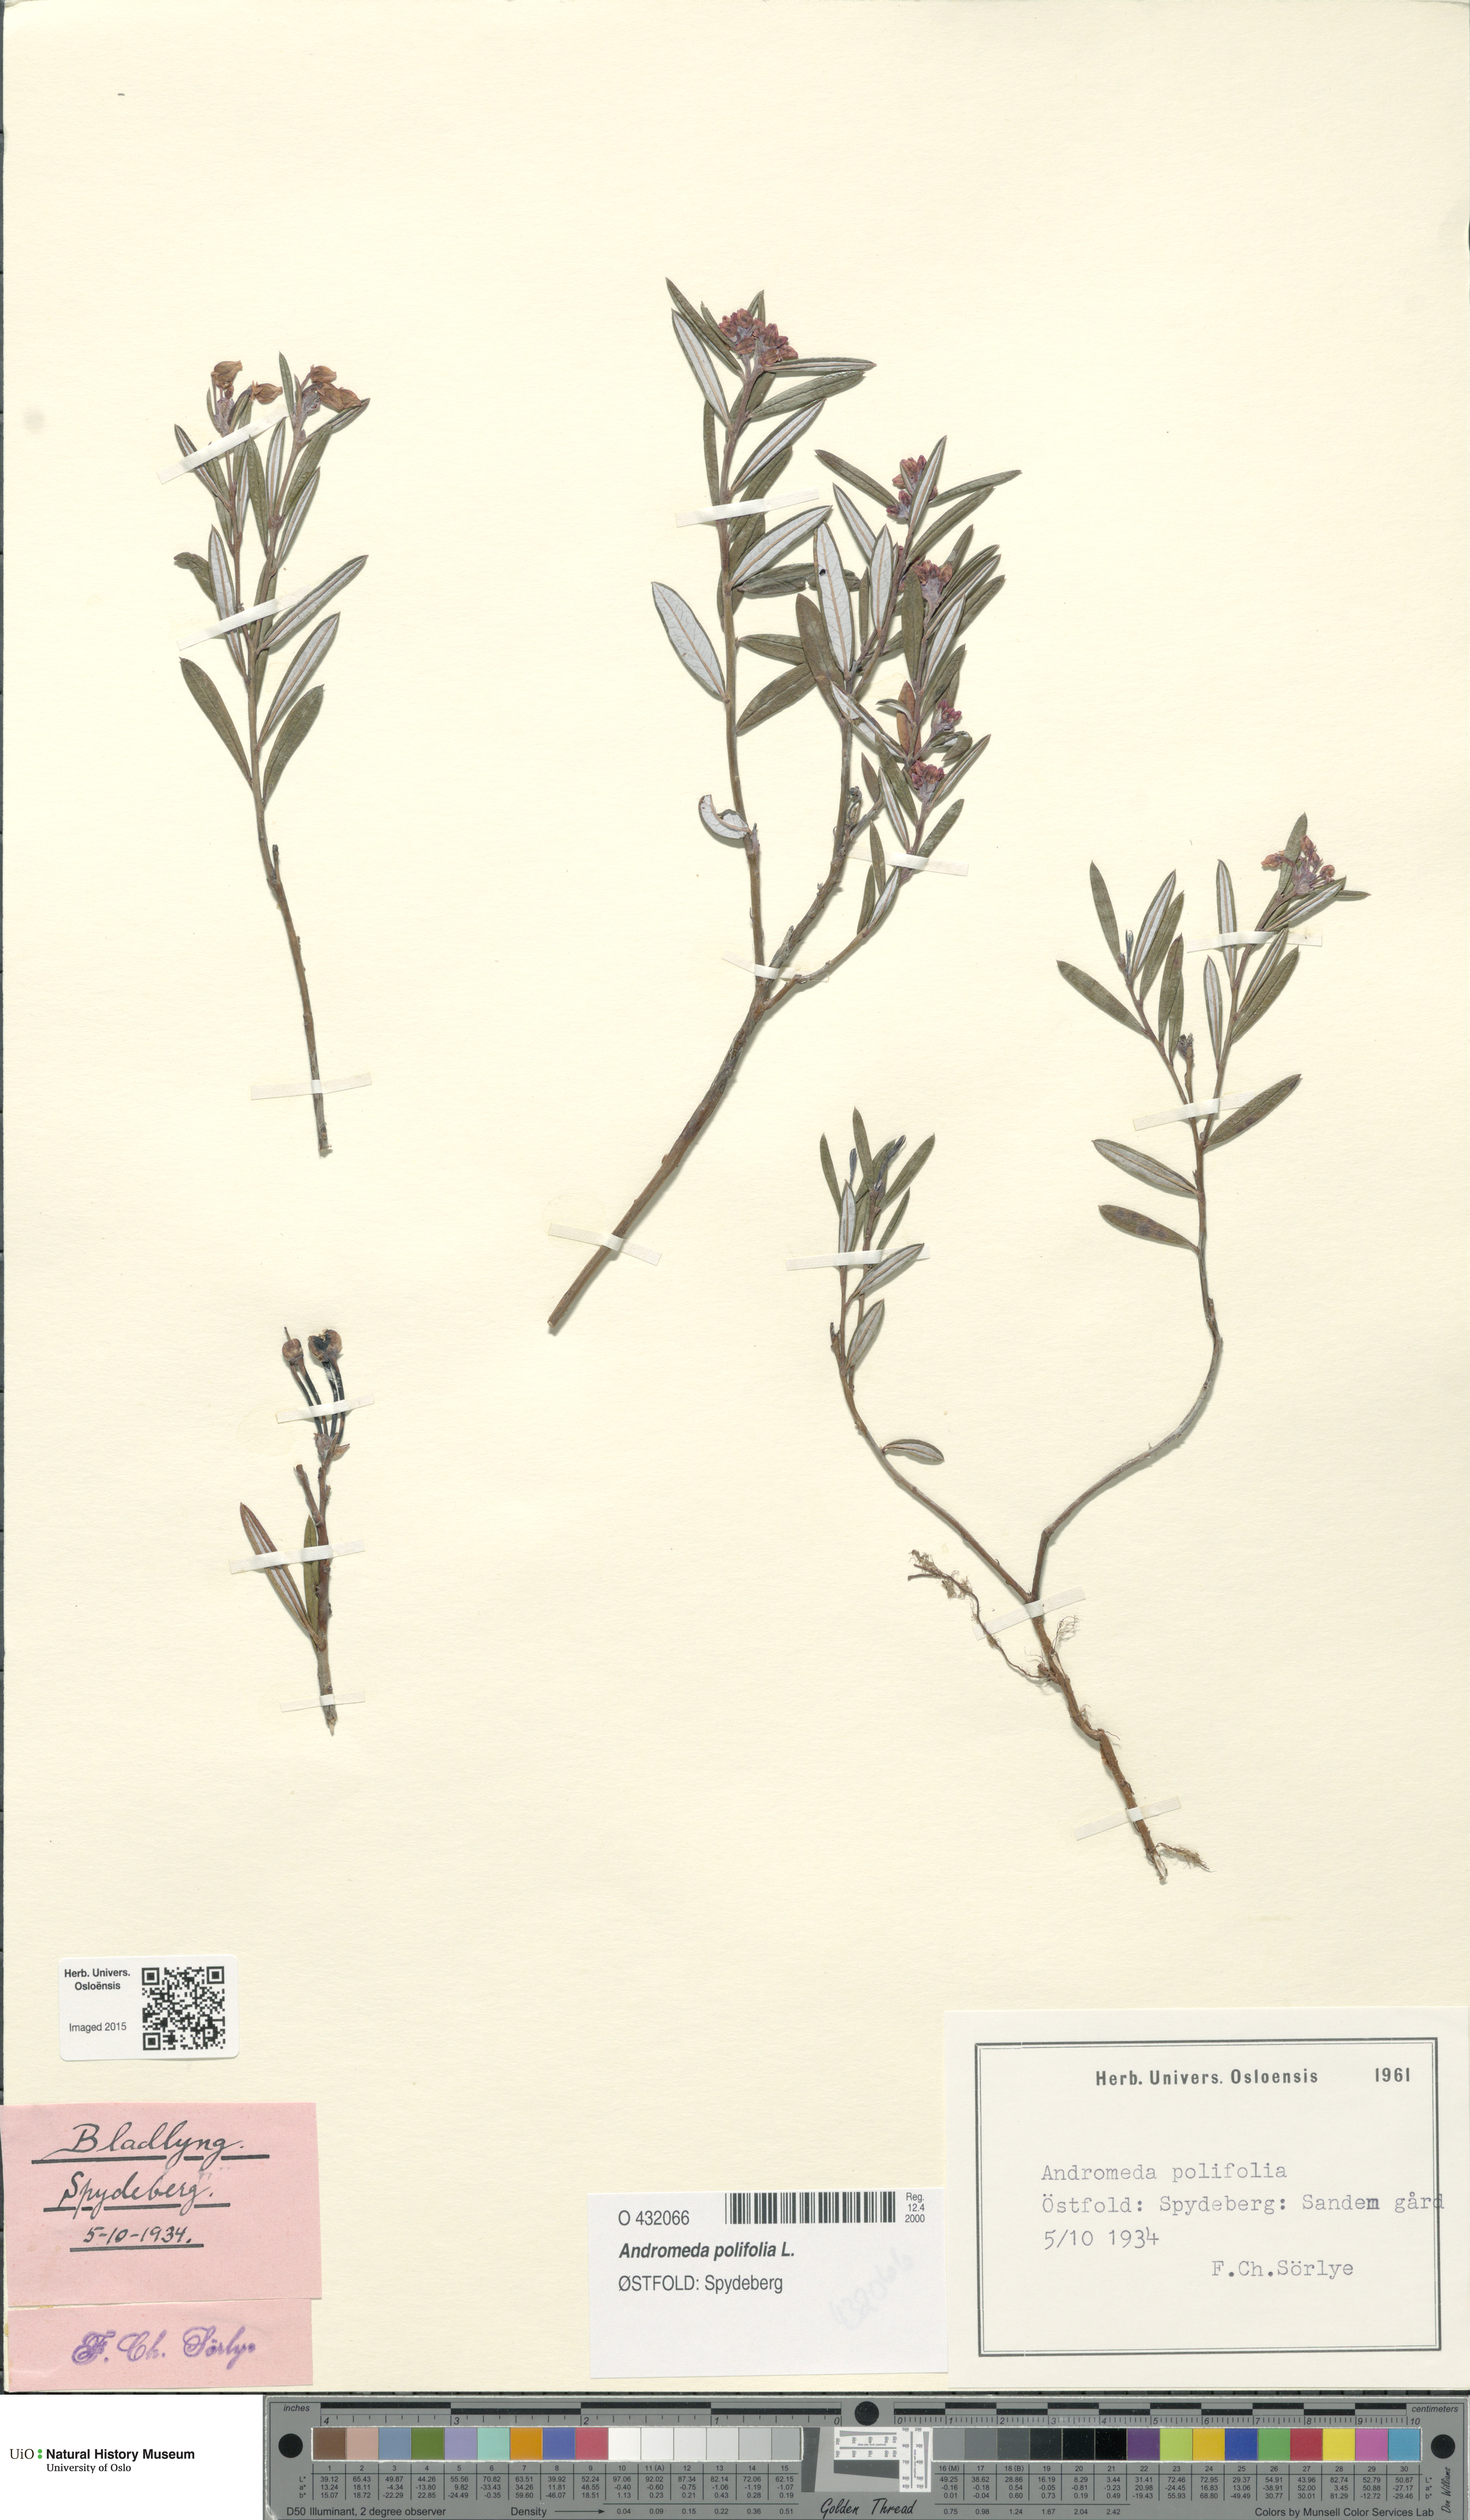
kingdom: Plantae
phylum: Tracheophyta
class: Magnoliopsida
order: Ericales
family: Ericaceae
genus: Andromeda
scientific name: Andromeda polifolia
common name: Bog-rosemary
